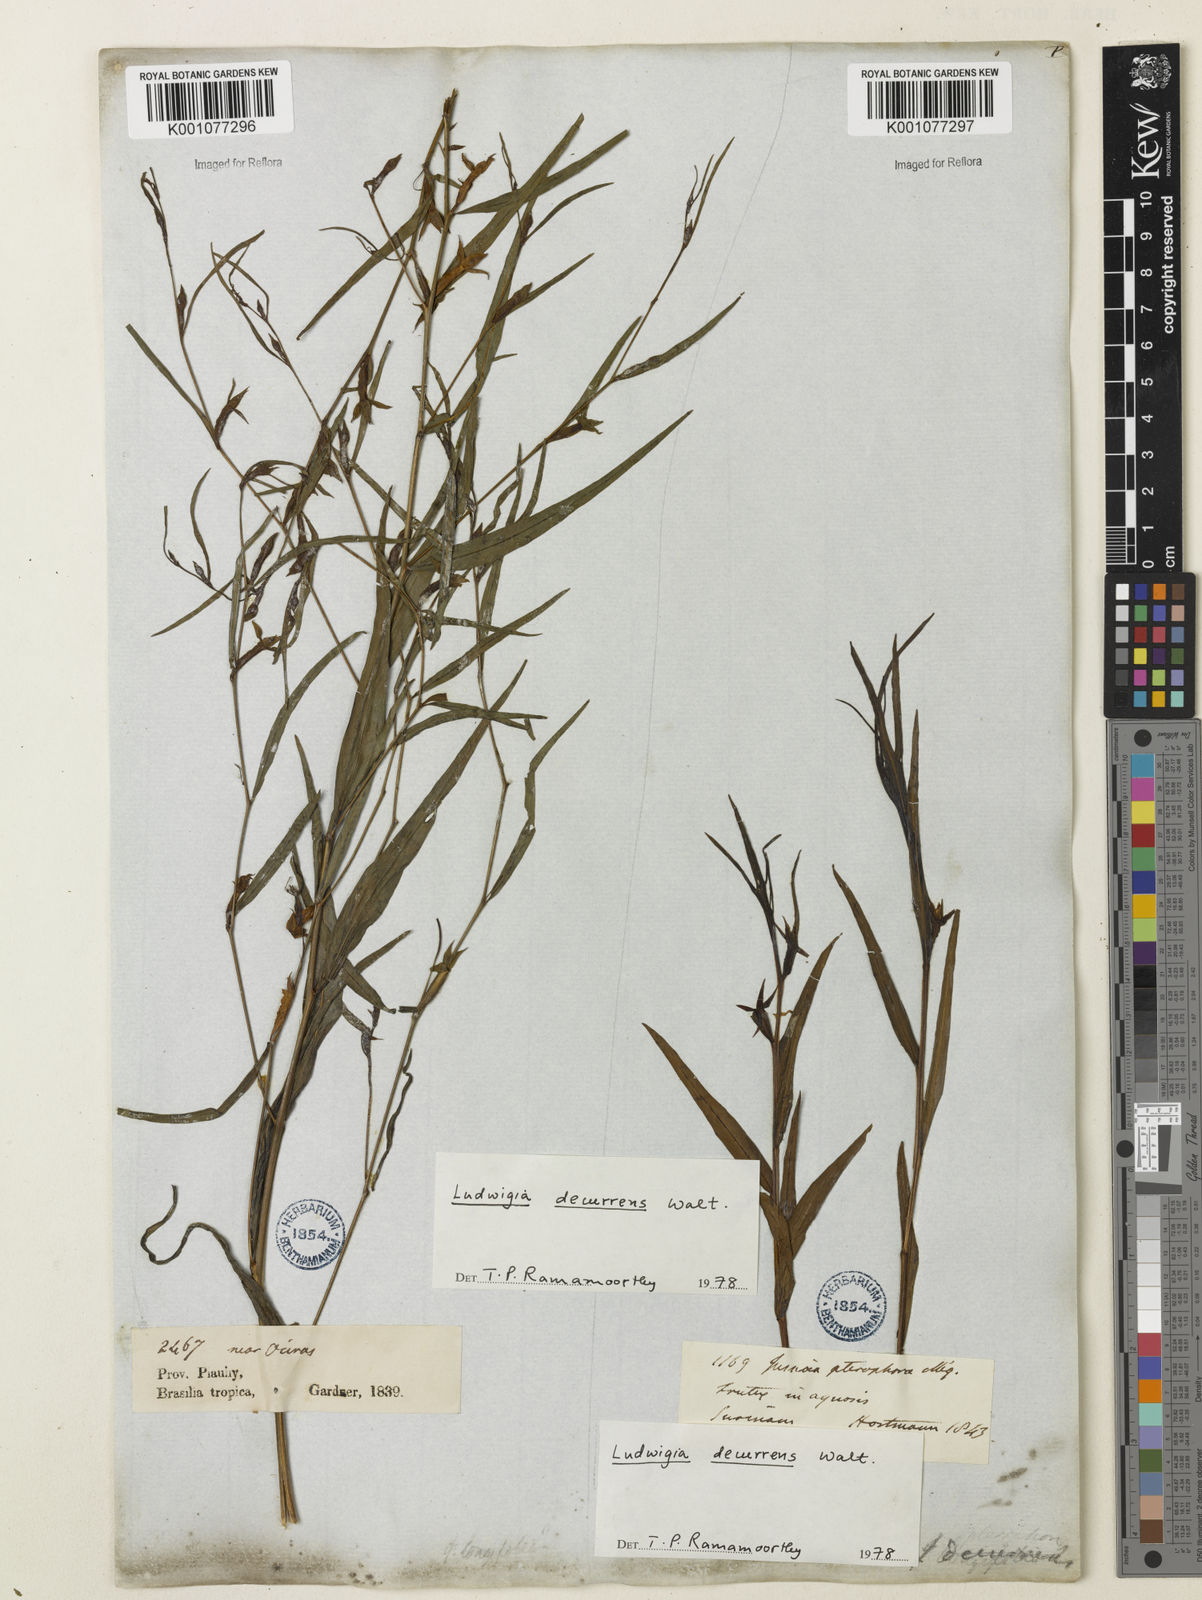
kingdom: Plantae
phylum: Tracheophyta
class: Magnoliopsida
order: Myrtales
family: Onagraceae
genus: Ludwigia
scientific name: Ludwigia decurrens
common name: Winged water-primrose
